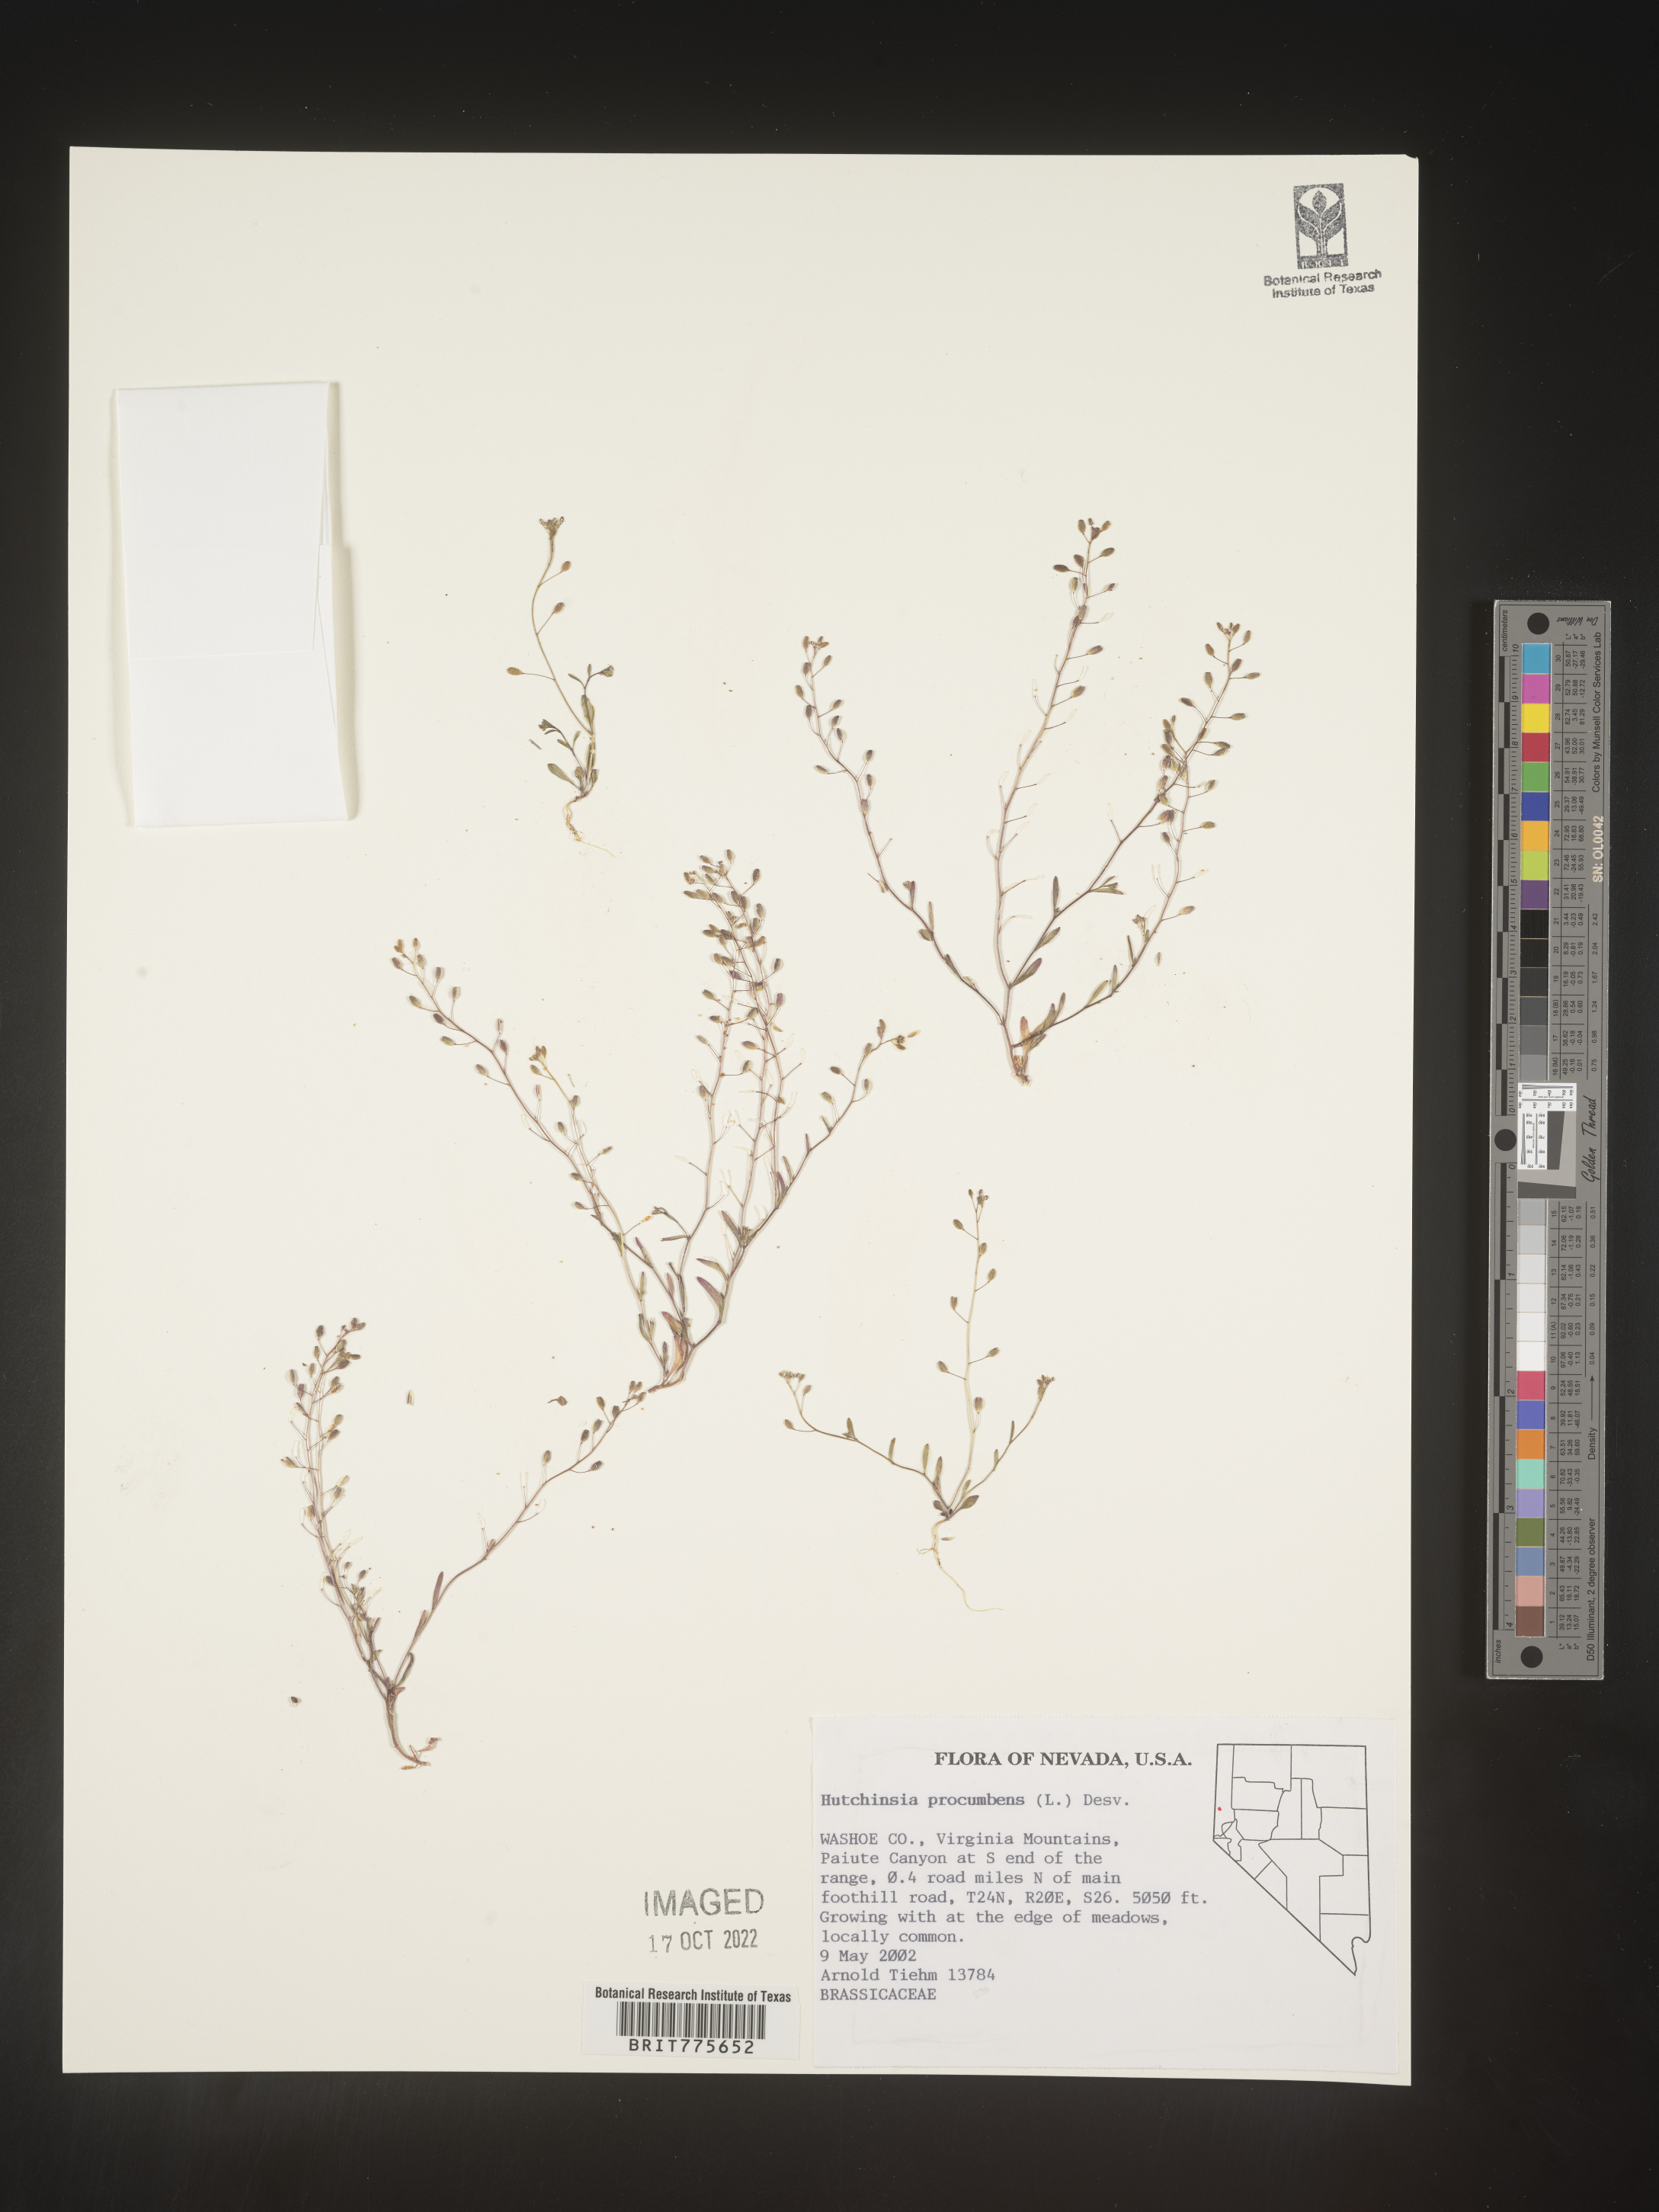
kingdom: Plantae
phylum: Rhodophyta
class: Florideophyceae
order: Ceramiales
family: Rhodomelaceae
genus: Hutchinsia
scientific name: Hutchinsia
